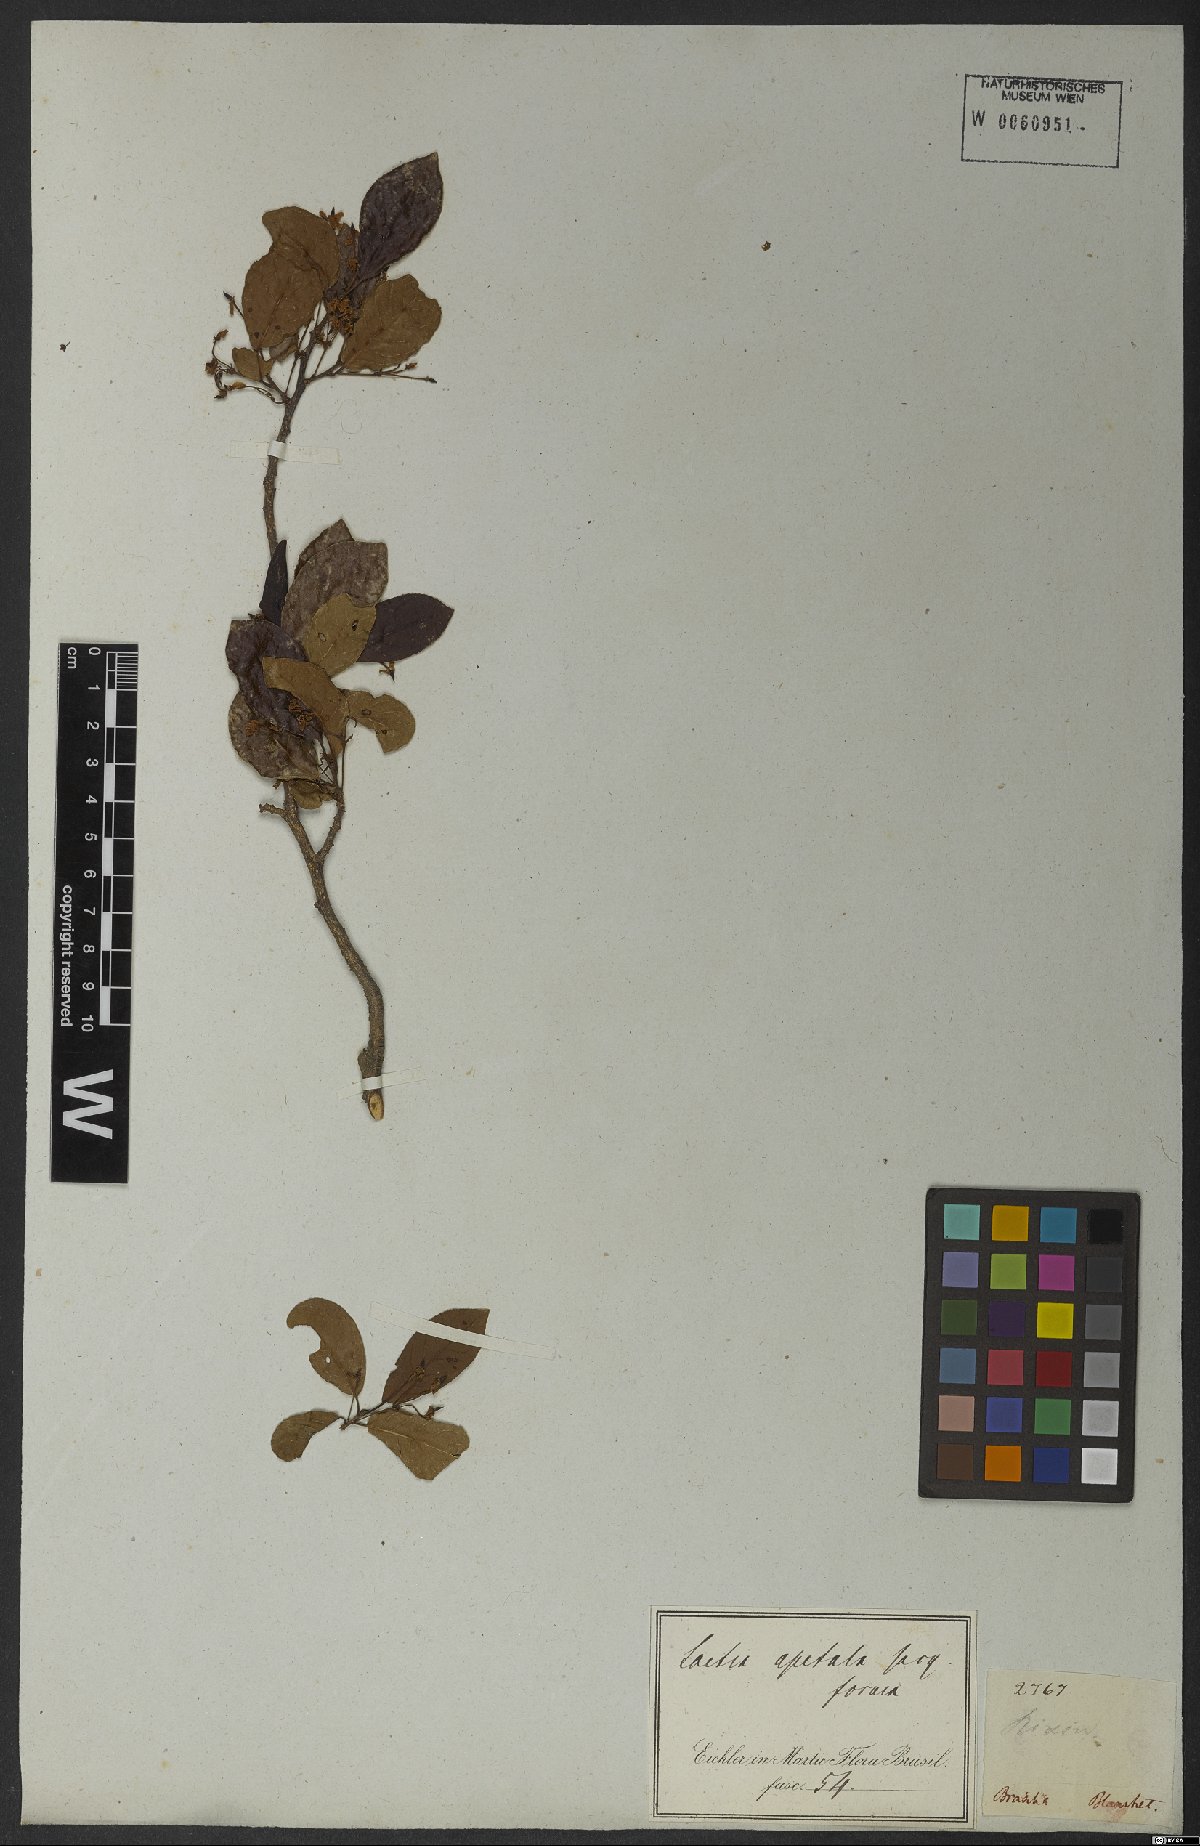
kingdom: Plantae
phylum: Tracheophyta
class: Magnoliopsida
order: Malpighiales
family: Salicaceae
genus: Casearia
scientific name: Casearia americana
